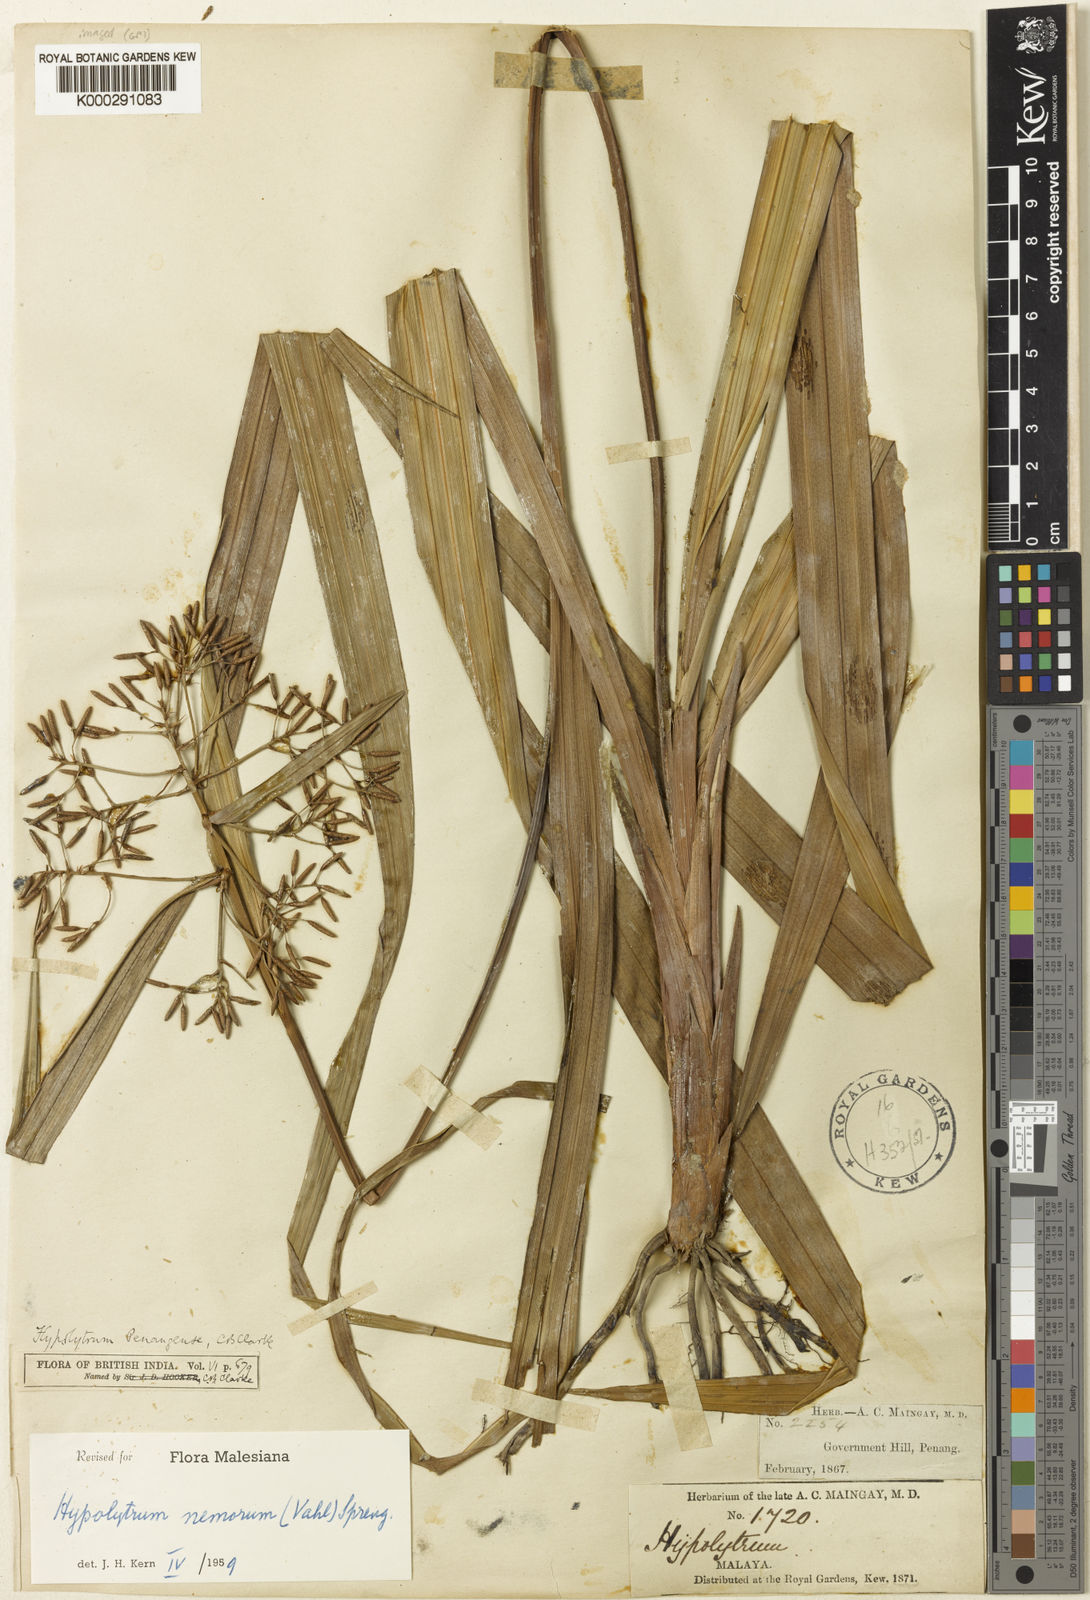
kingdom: Plantae
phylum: Tracheophyta
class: Liliopsida
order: Poales
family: Cyperaceae
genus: Hypolytrum
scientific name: Hypolytrum nemorum
